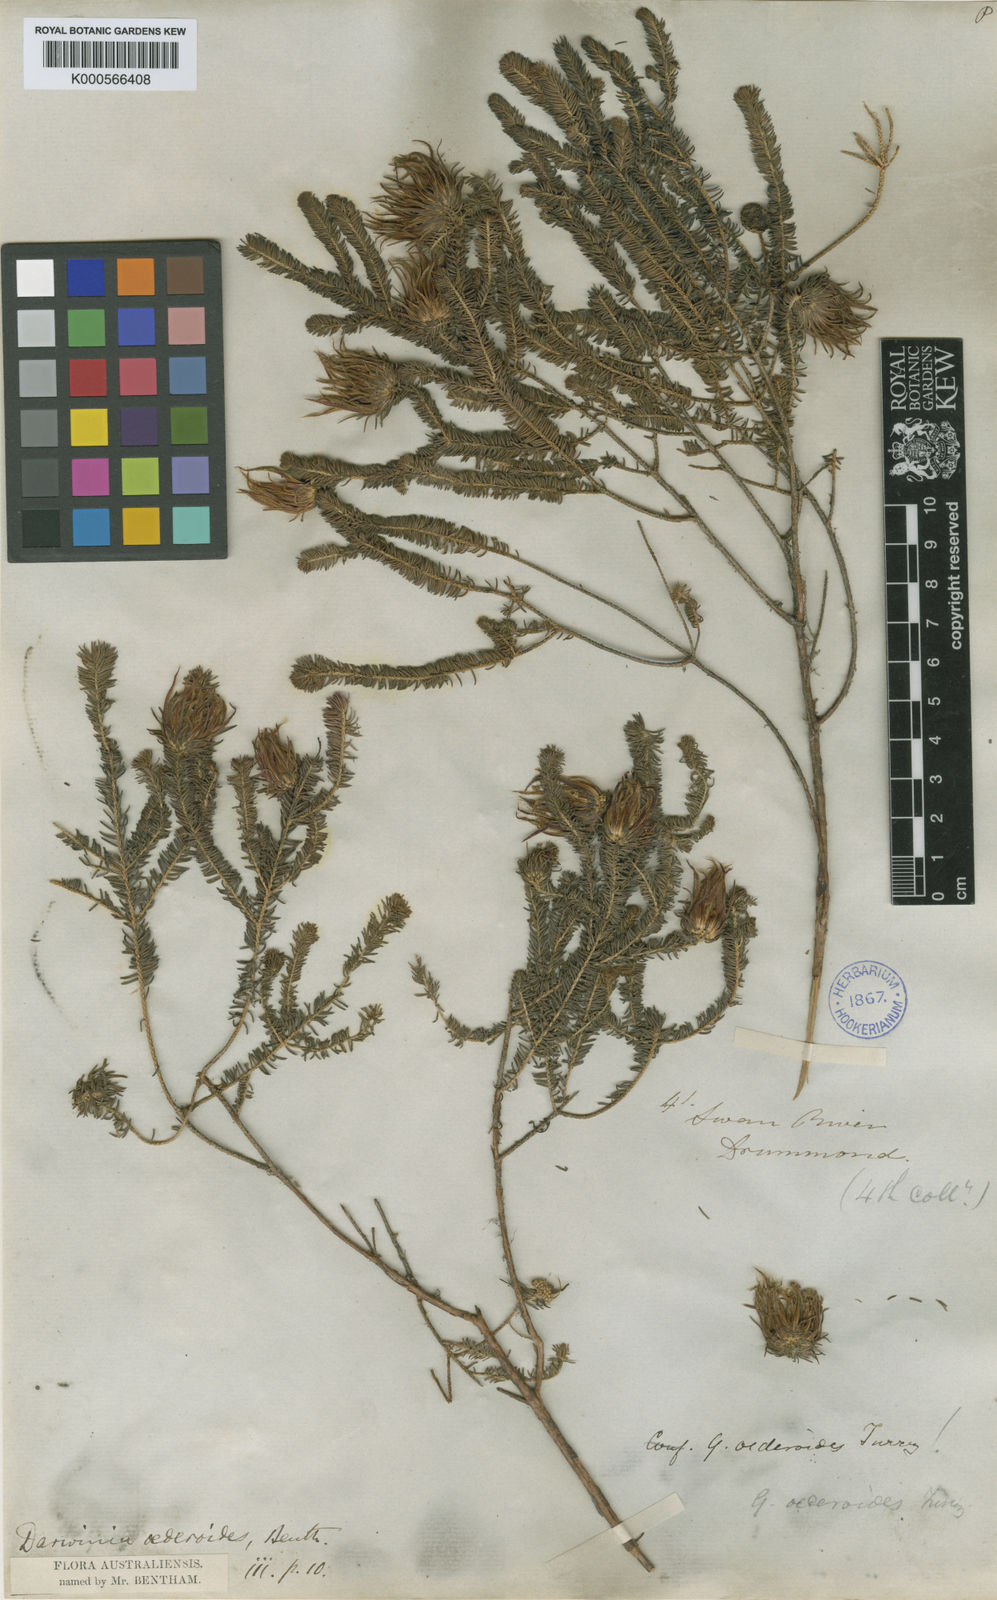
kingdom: Plantae
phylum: Tracheophyta
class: Magnoliopsida
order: Myrtales
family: Myrtaceae
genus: Darwinia
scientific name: Darwinia oederoides
